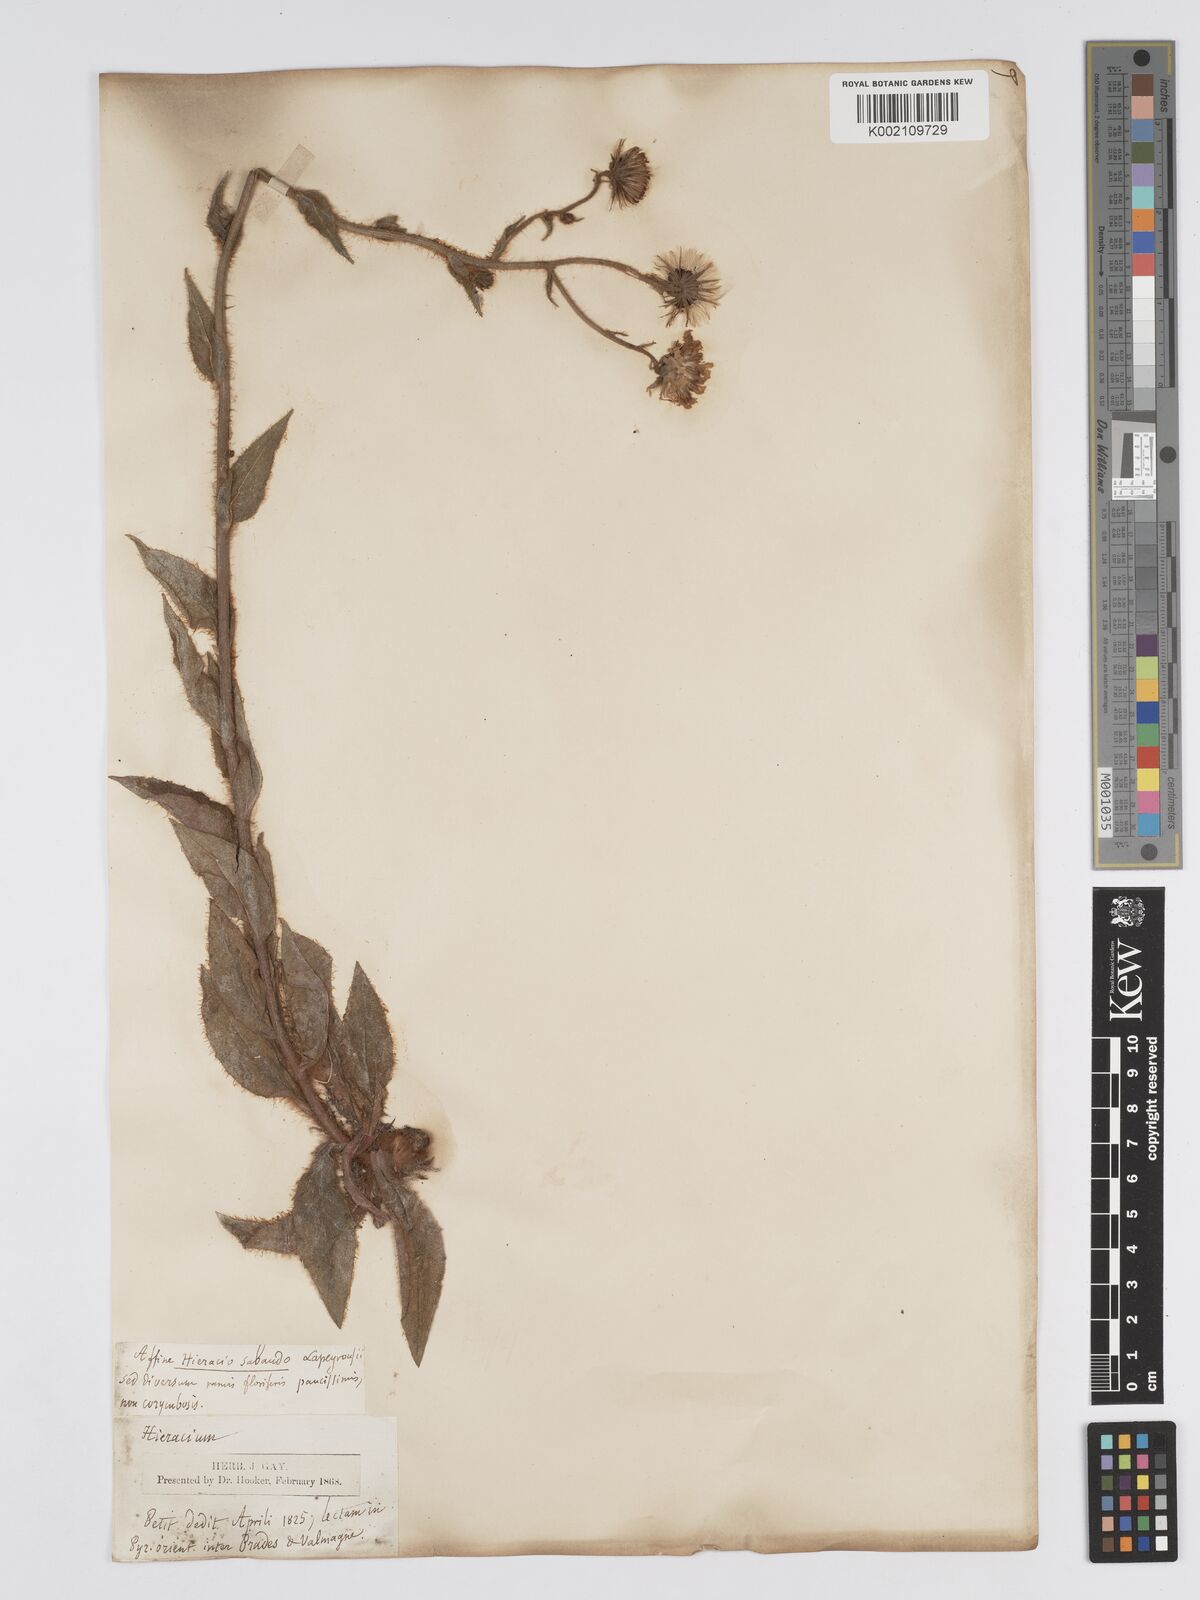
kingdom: Plantae
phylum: Tracheophyta
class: Magnoliopsida
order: Asterales
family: Asteraceae
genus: Hieracium
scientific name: Hieracium
